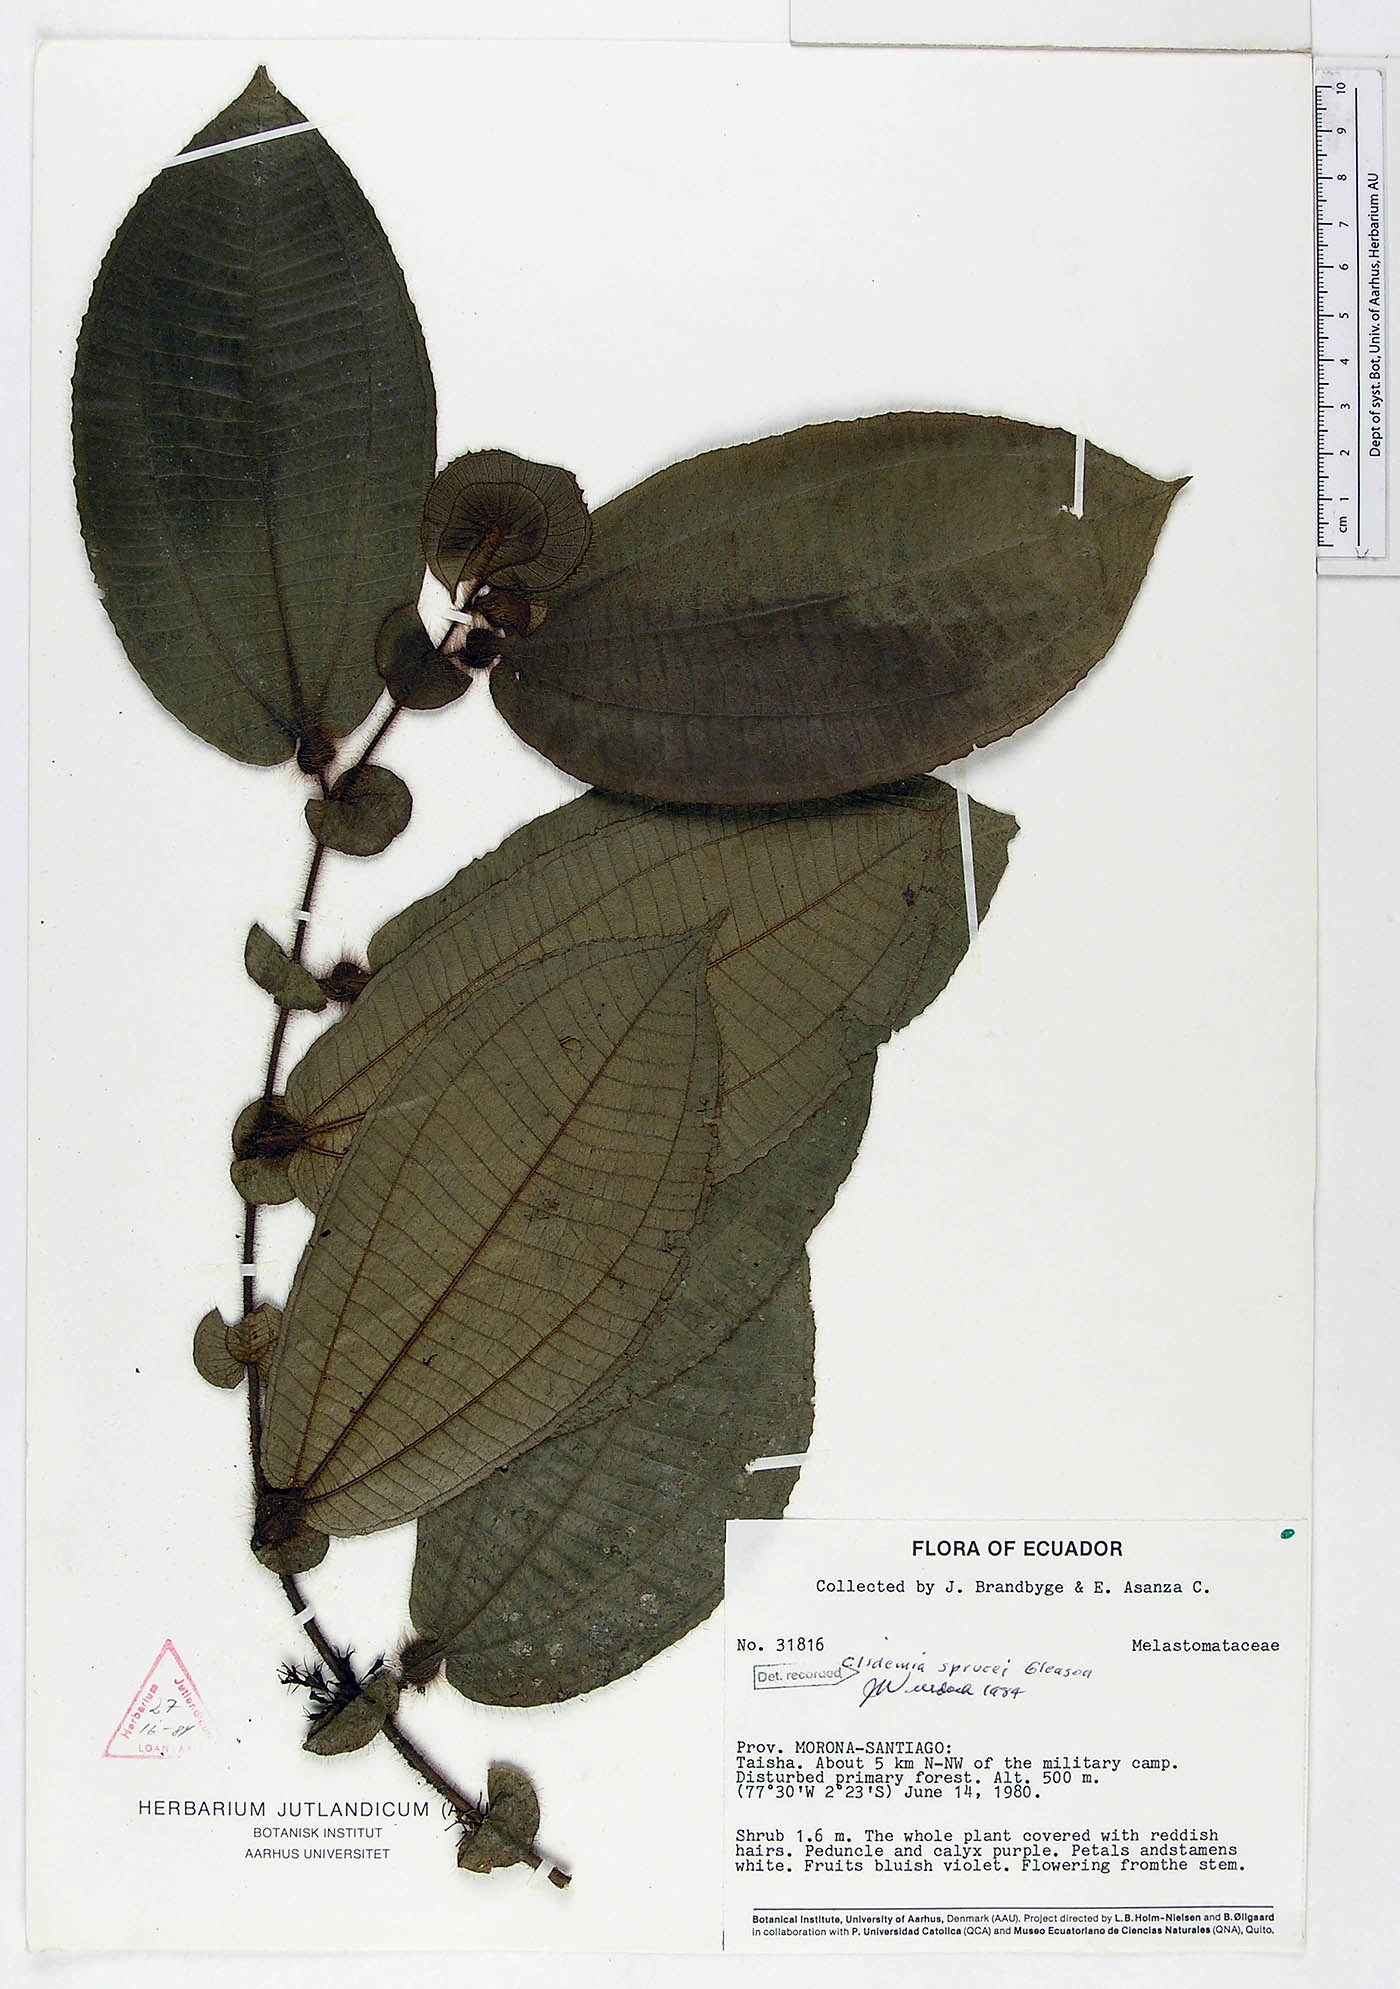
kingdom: Plantae
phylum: Tracheophyta
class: Magnoliopsida
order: Myrtales
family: Melastomataceae
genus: Miconia
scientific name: Miconia richardsprucei
